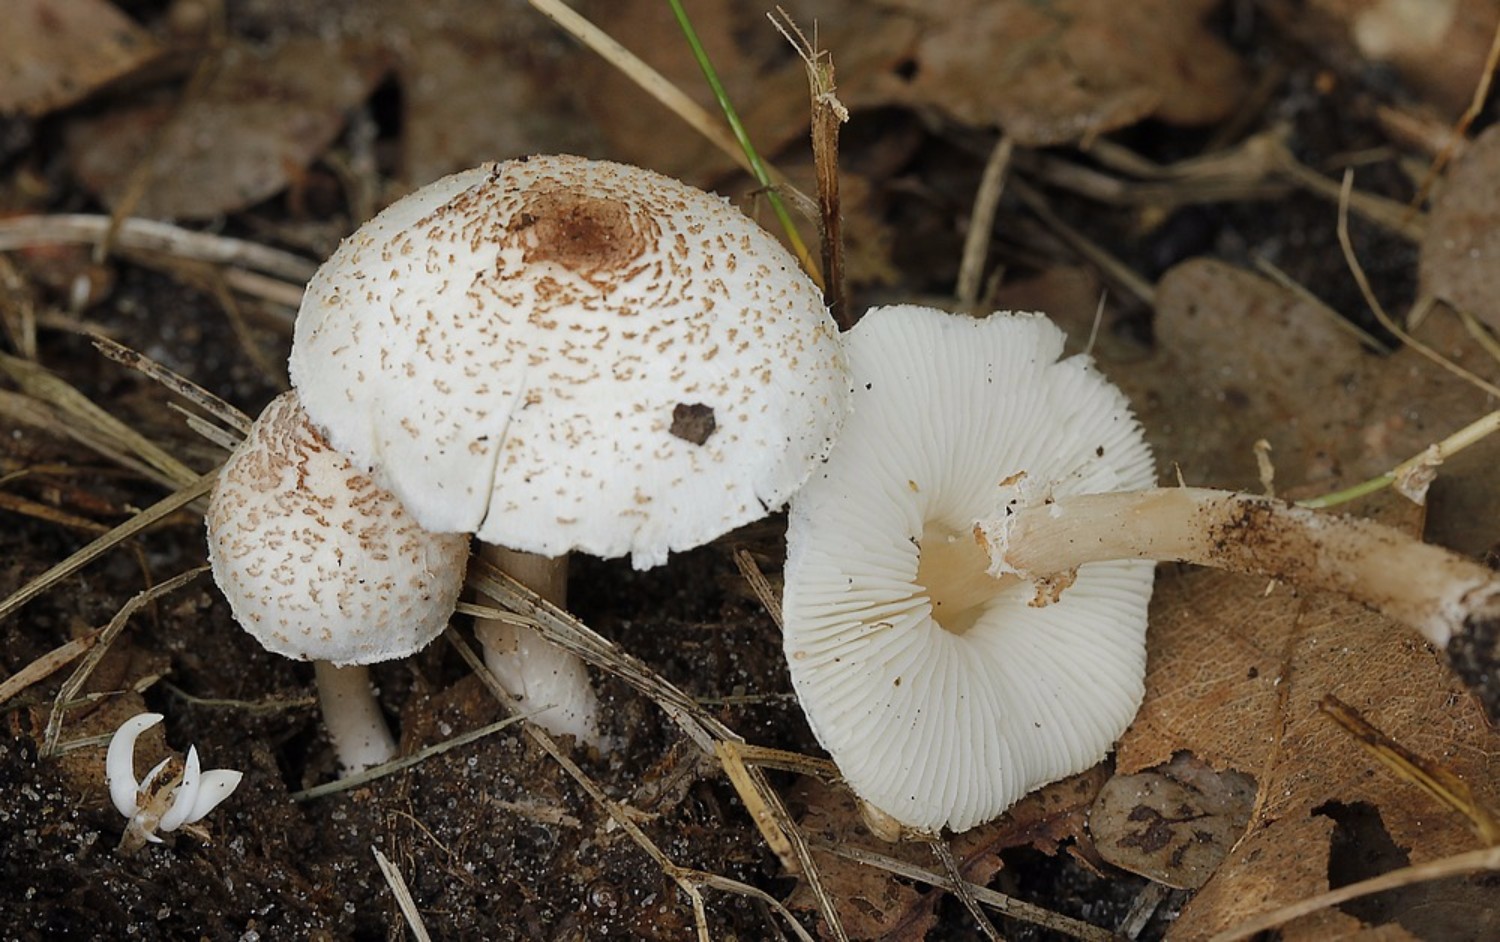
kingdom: Fungi
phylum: Basidiomycota
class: Agaricomycetes
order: Agaricales
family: Agaricaceae
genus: Lepiota
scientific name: Lepiota cristata
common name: stinkende parasolhat
